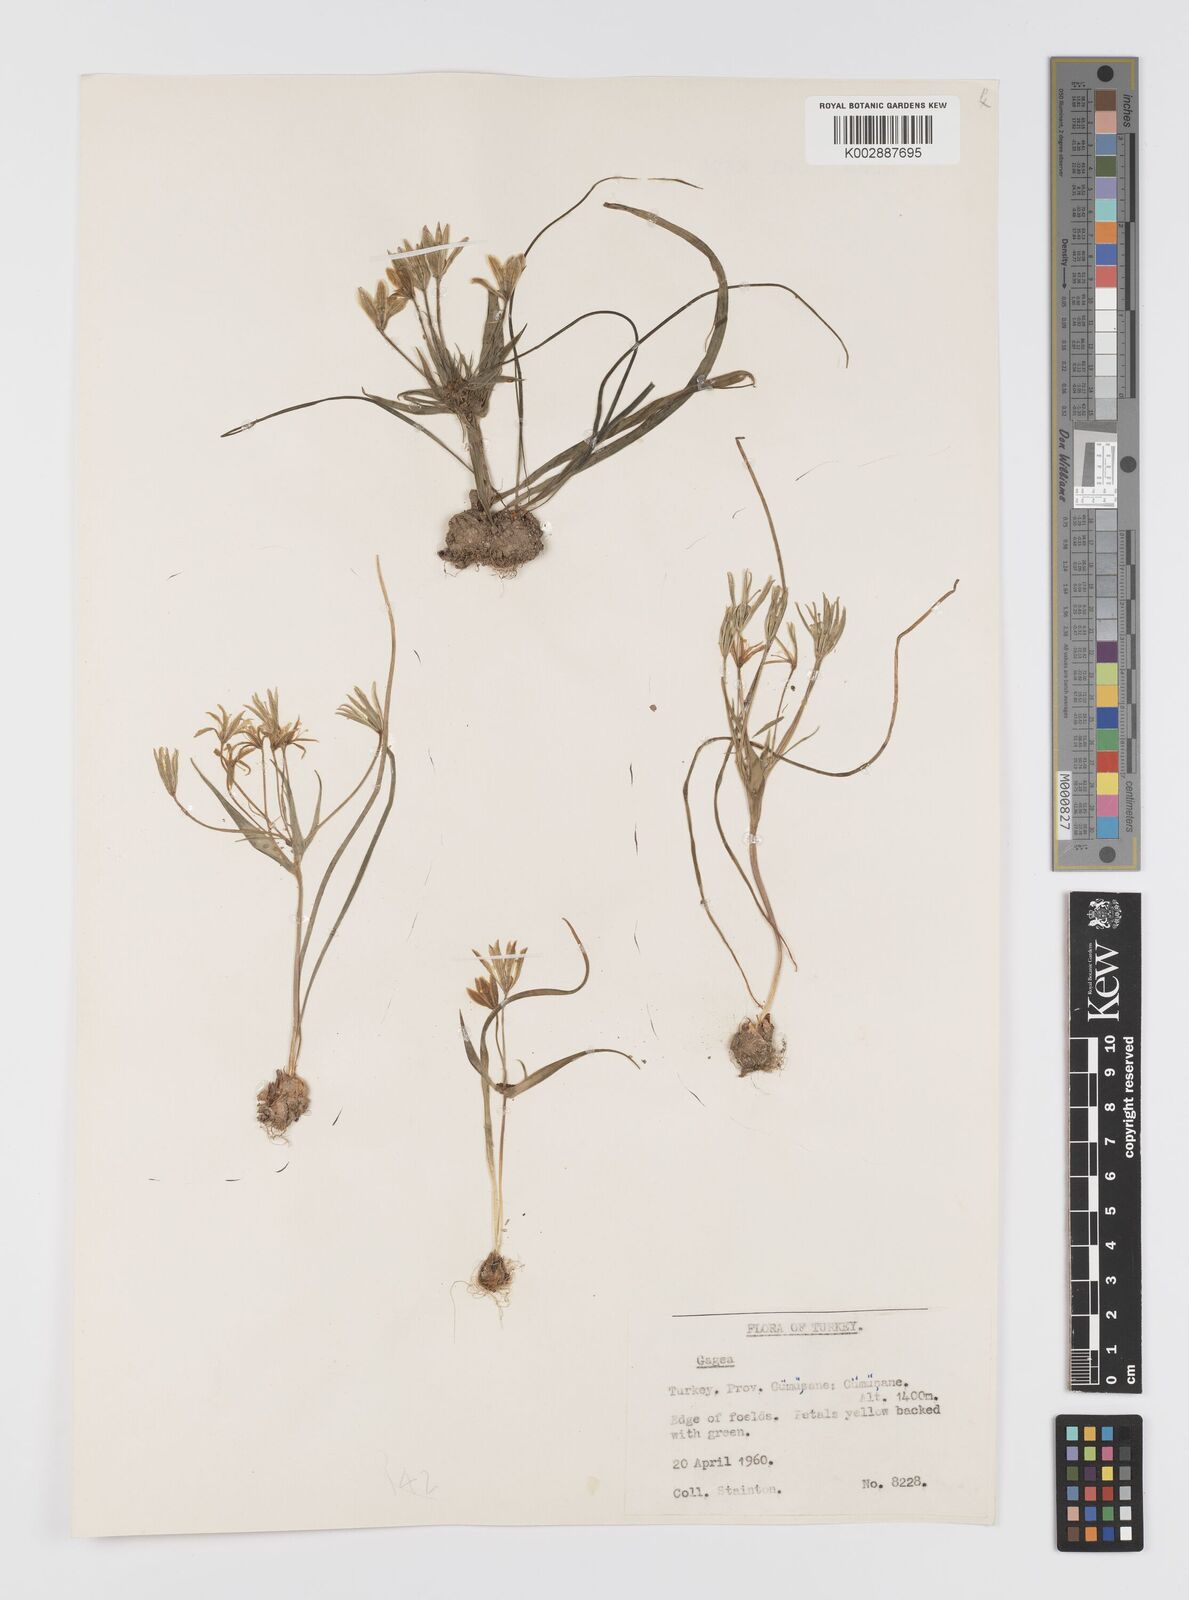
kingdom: Plantae
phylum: Tracheophyta
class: Liliopsida
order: Liliales
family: Liliaceae
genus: Gagea
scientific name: Gagea dubia
